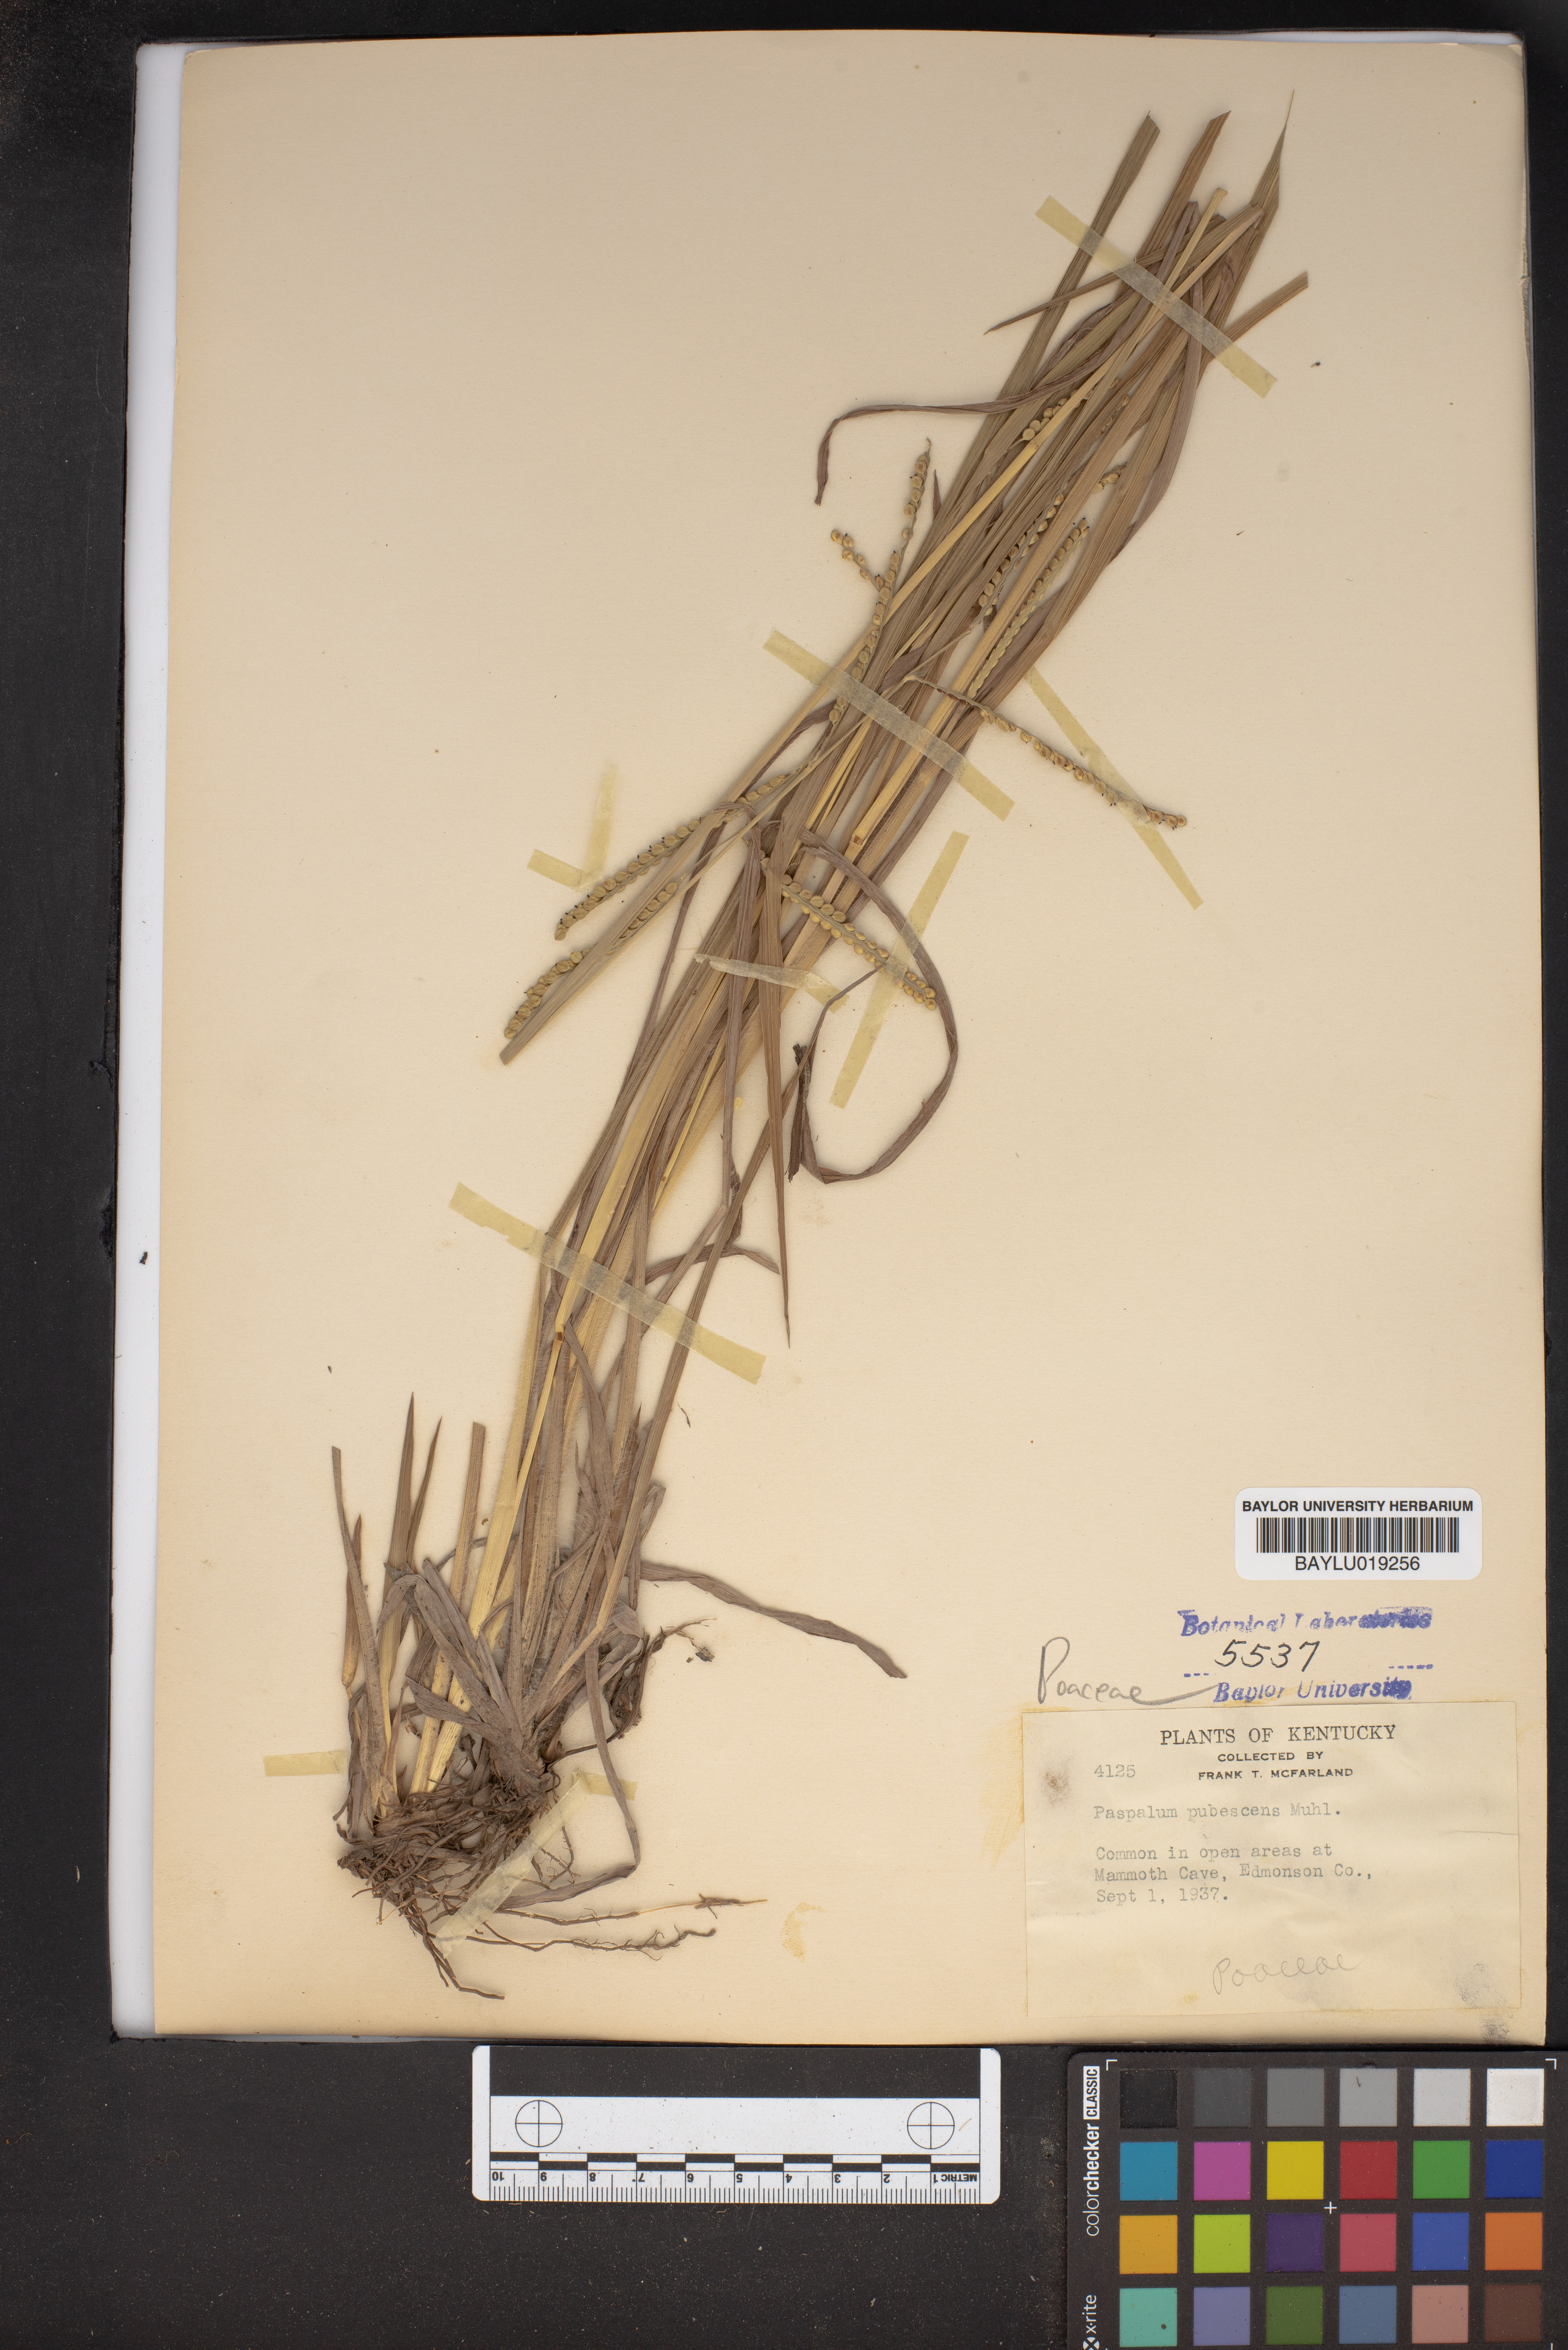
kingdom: Plantae
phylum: Tracheophyta
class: Liliopsida
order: Poales
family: Poaceae
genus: Paspalum
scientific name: Paspalum setaceum
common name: Slender paspalum
